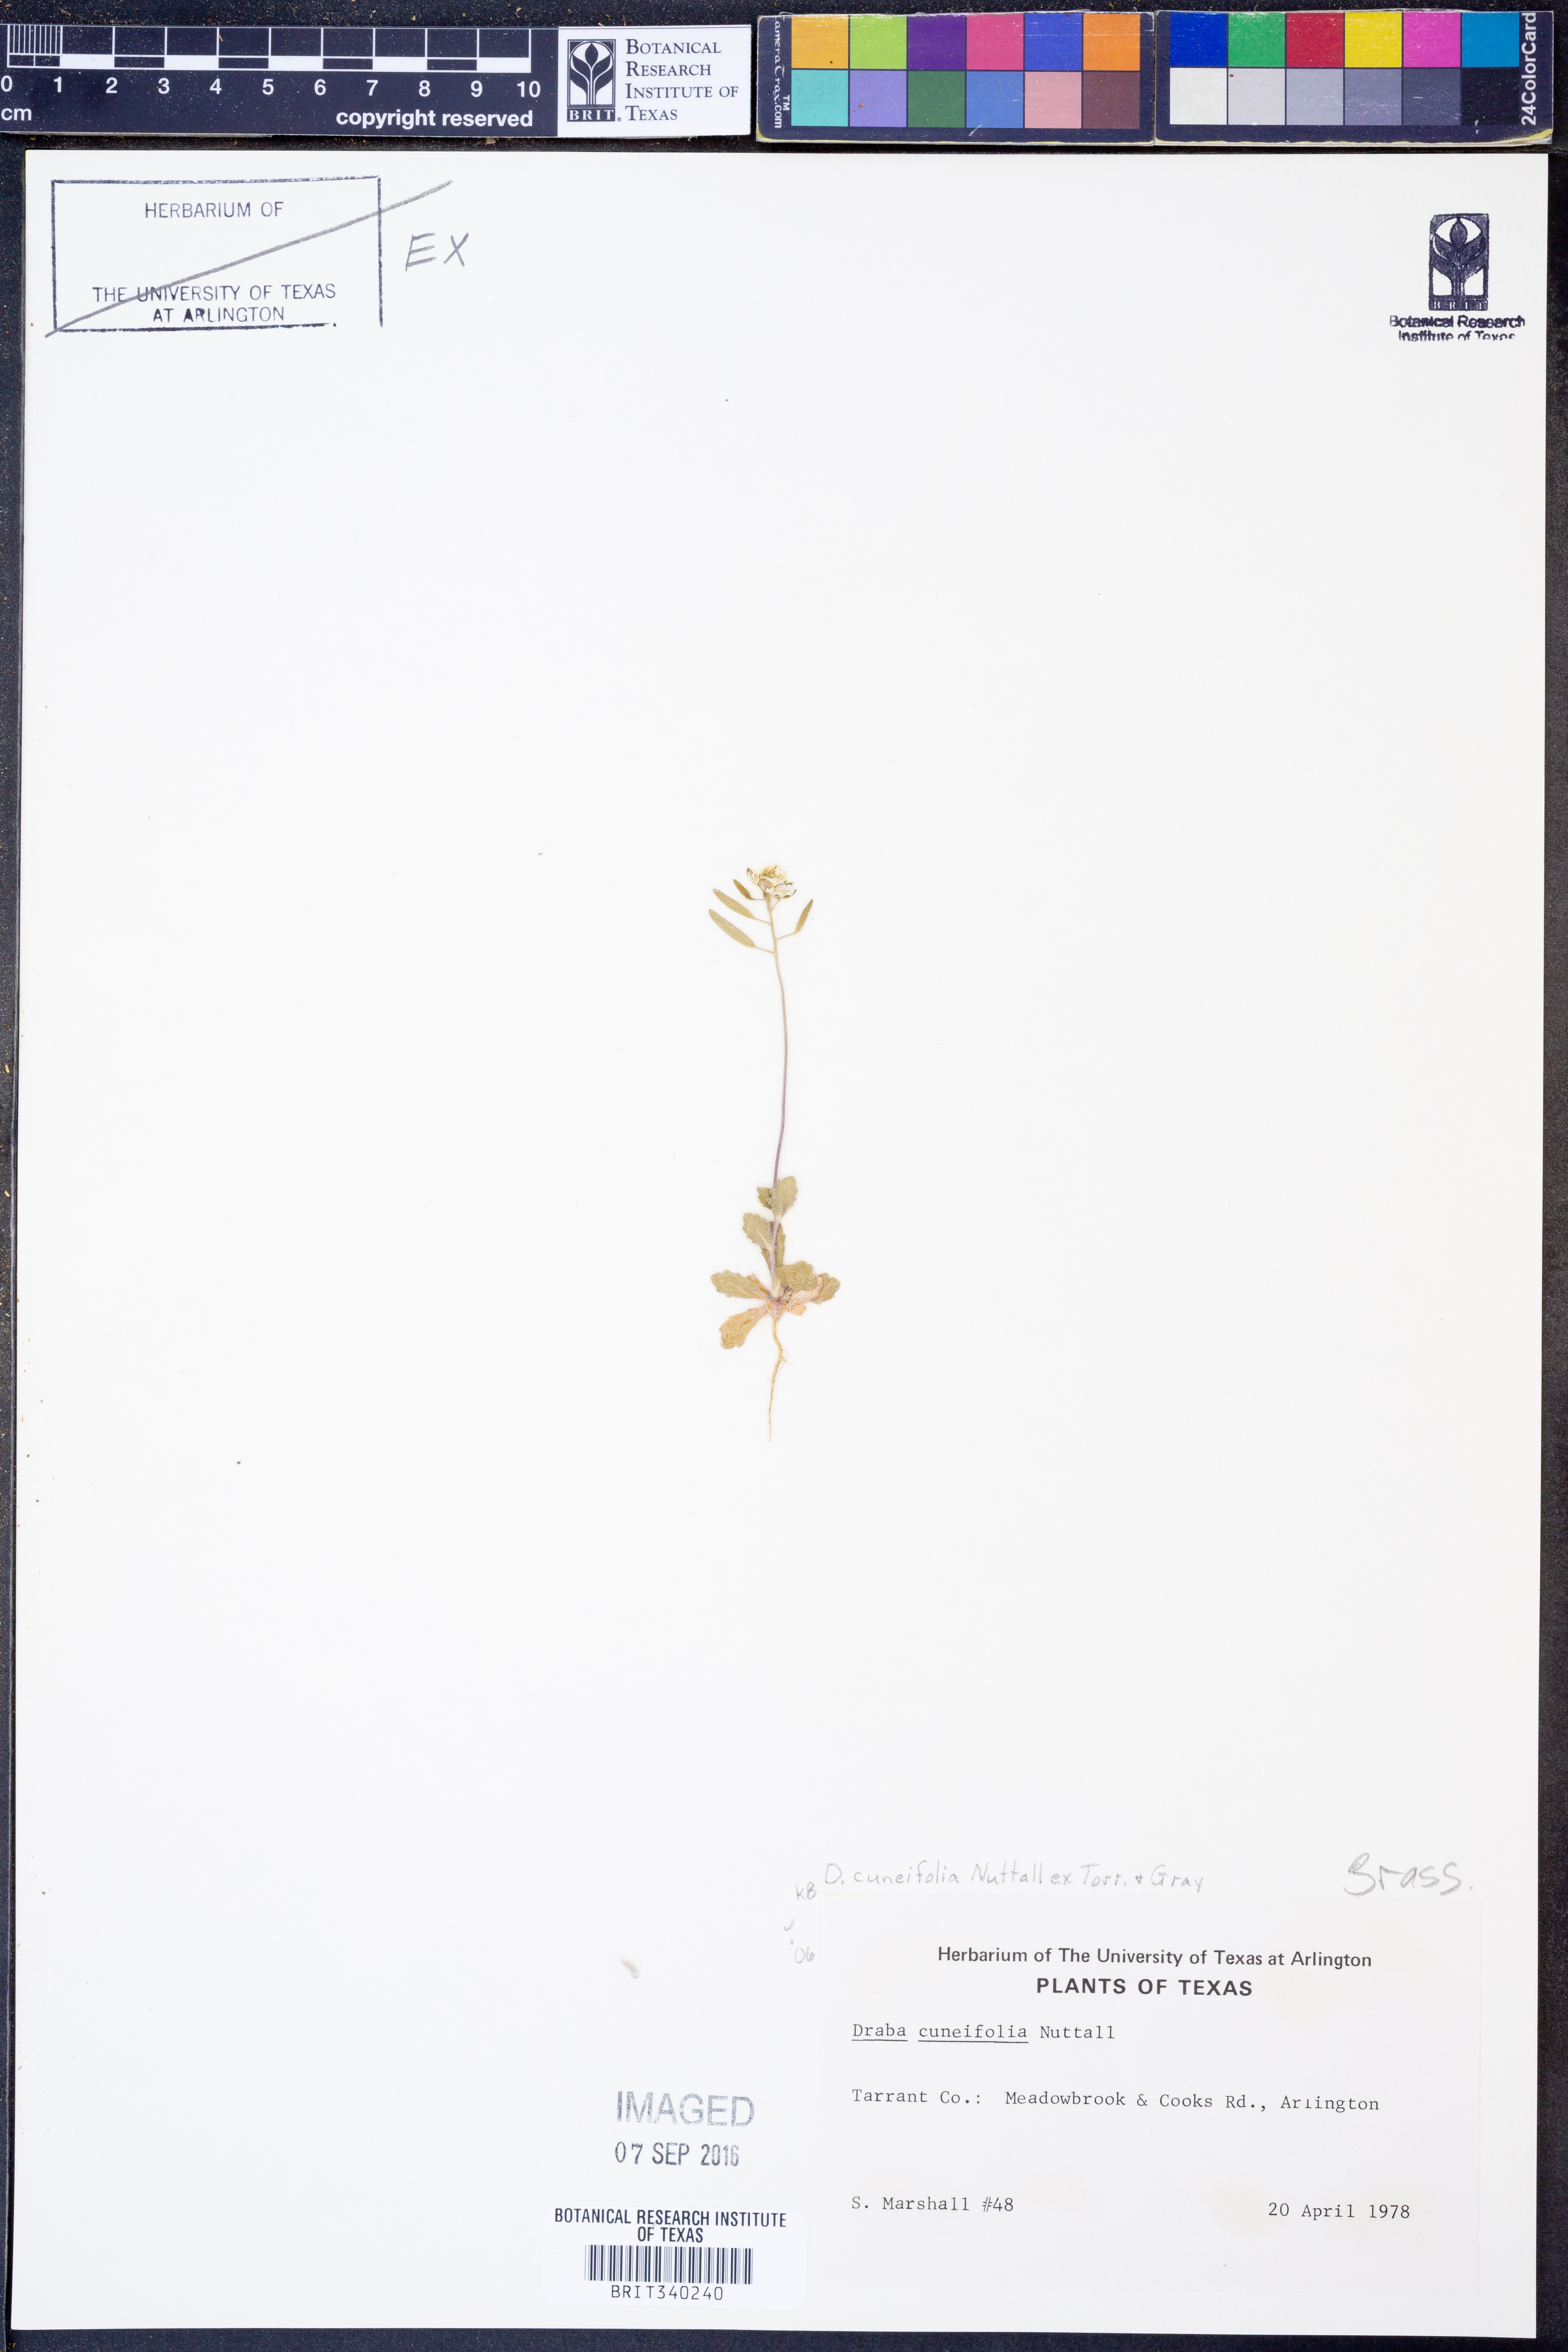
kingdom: Plantae
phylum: Tracheophyta
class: Magnoliopsida
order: Brassicales
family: Brassicaceae
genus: Tomostima
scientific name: Tomostima cuneifolia
